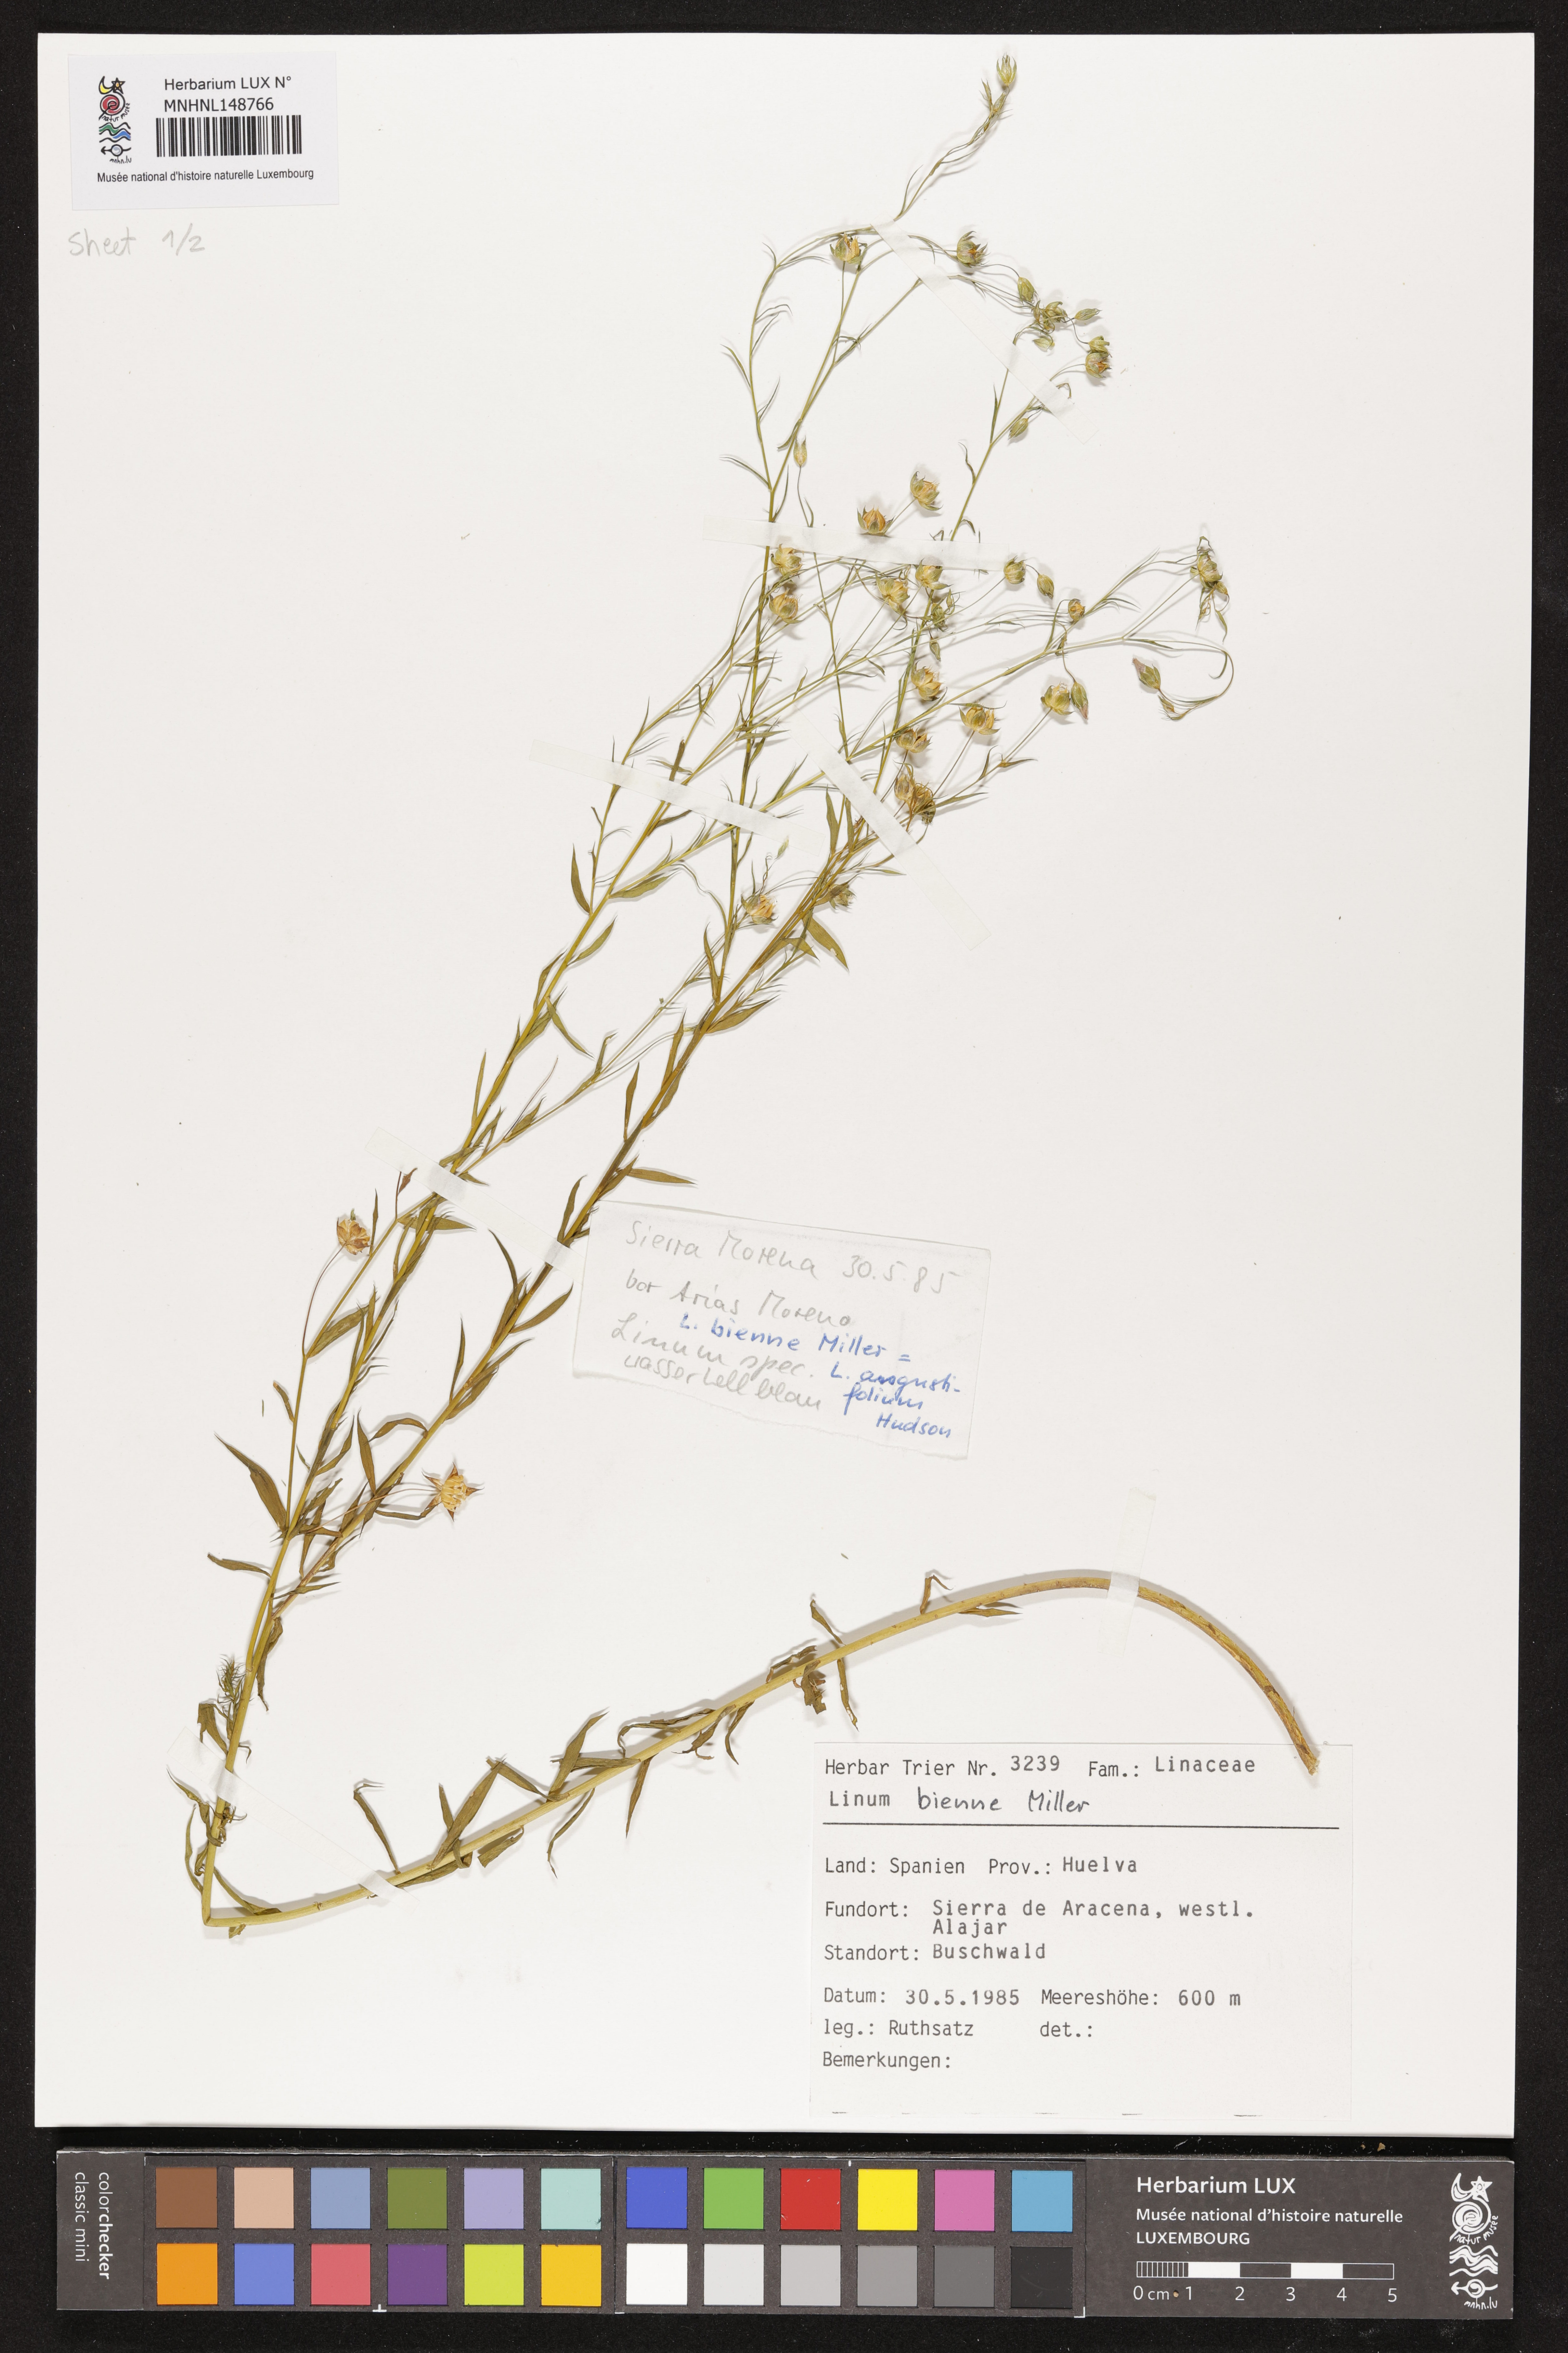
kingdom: Plantae
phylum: Tracheophyta
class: Magnoliopsida
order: Malpighiales
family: Linaceae
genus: Linum
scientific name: Linum bienne
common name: Pale flax
